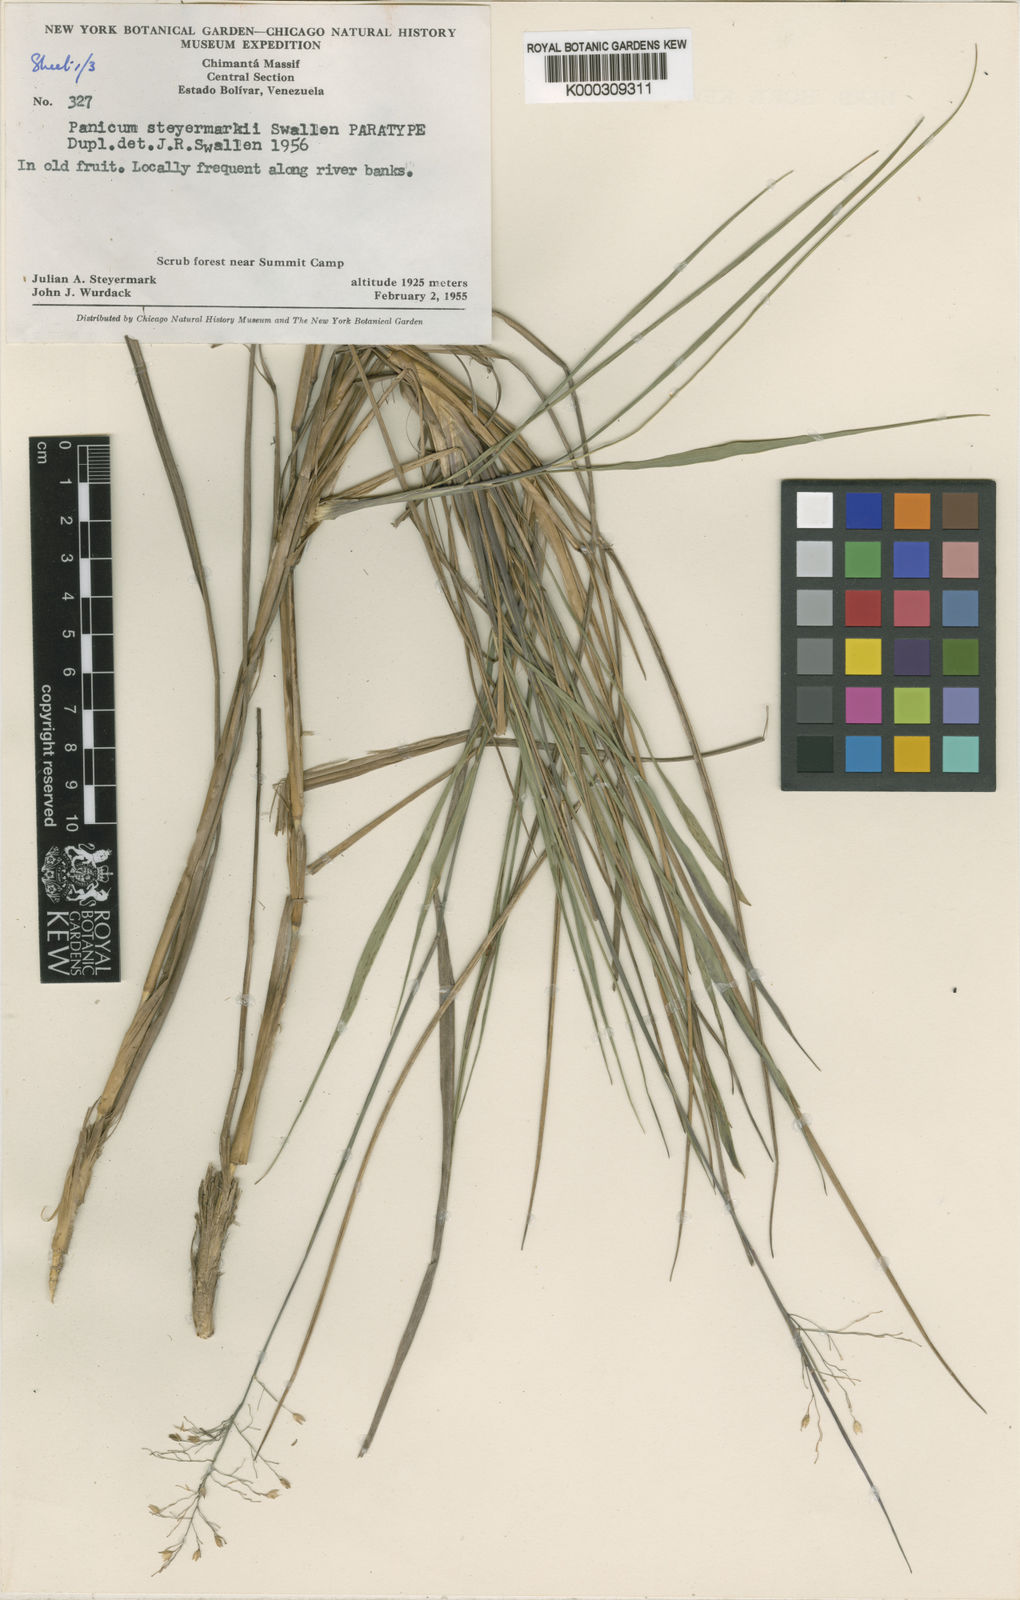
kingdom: Plantae
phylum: Tracheophyta
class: Liliopsida
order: Poales
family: Poaceae
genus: Apochloa
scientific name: Apochloa steyermarkii
